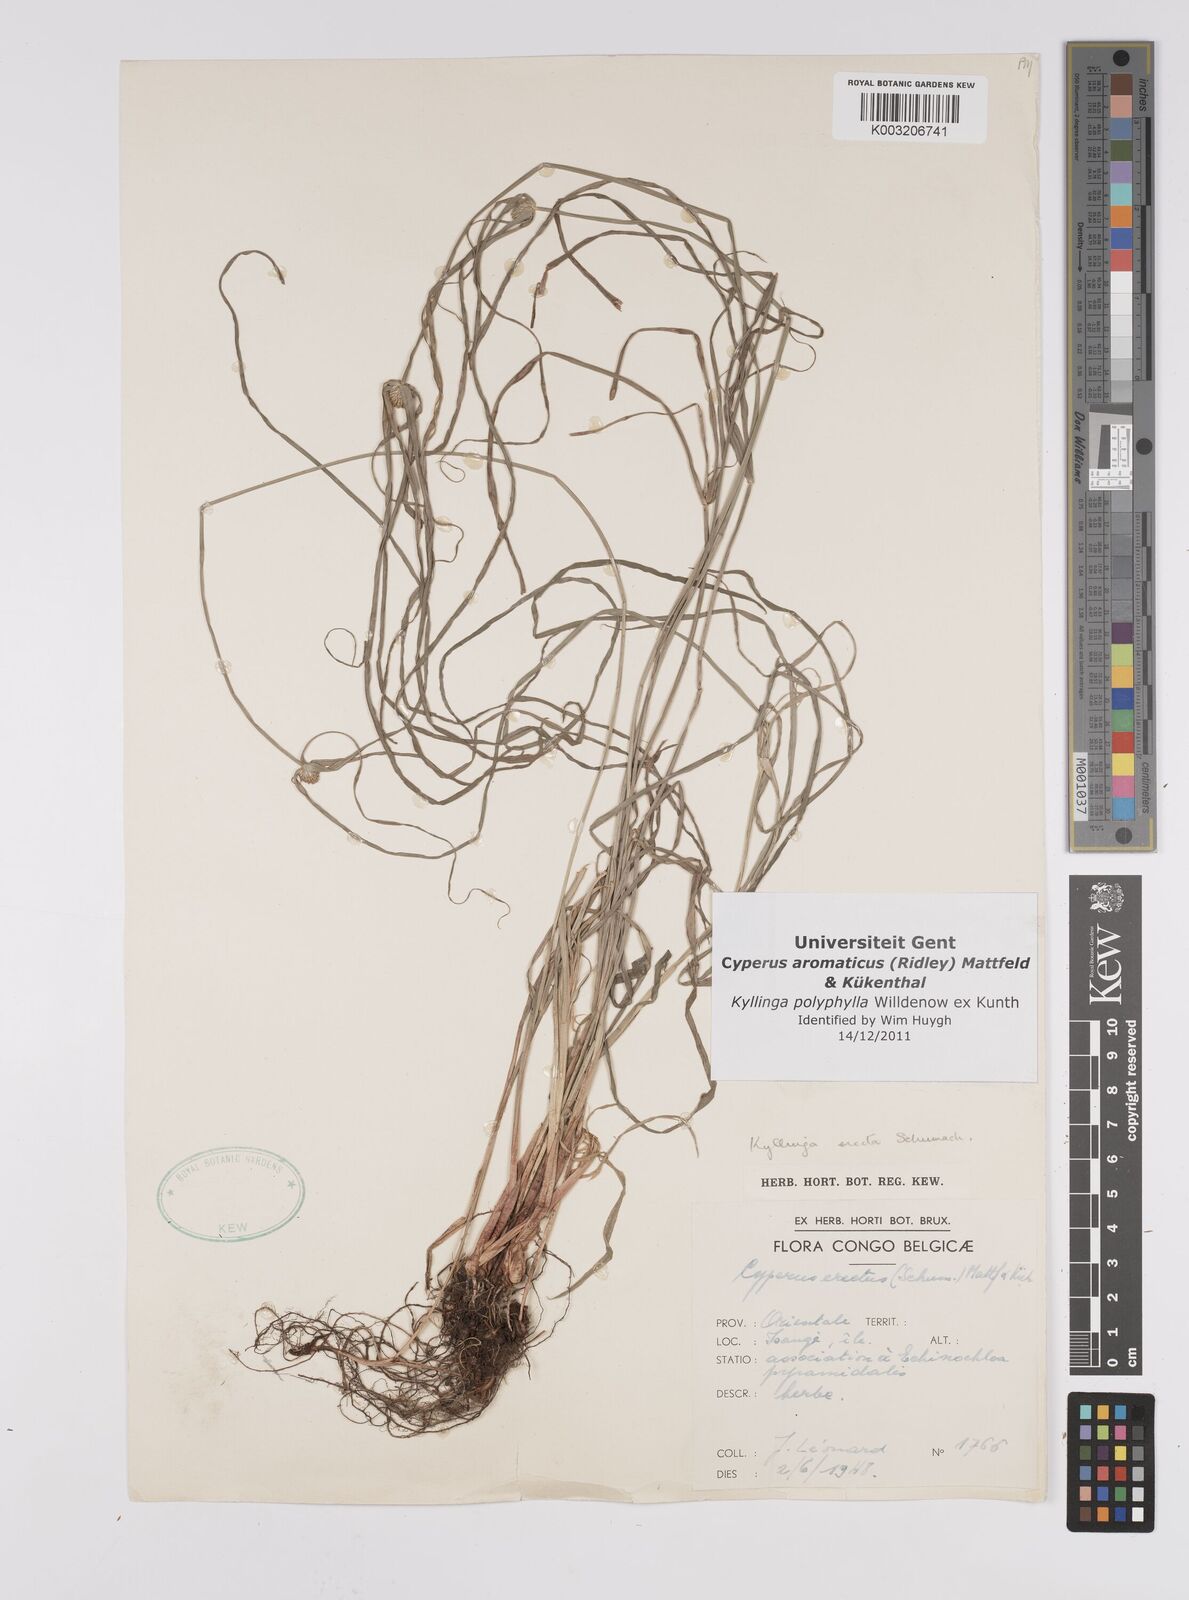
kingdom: Plantae
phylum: Tracheophyta
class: Liliopsida
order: Poales
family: Cyperaceae
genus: Cyperus
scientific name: Cyperus
